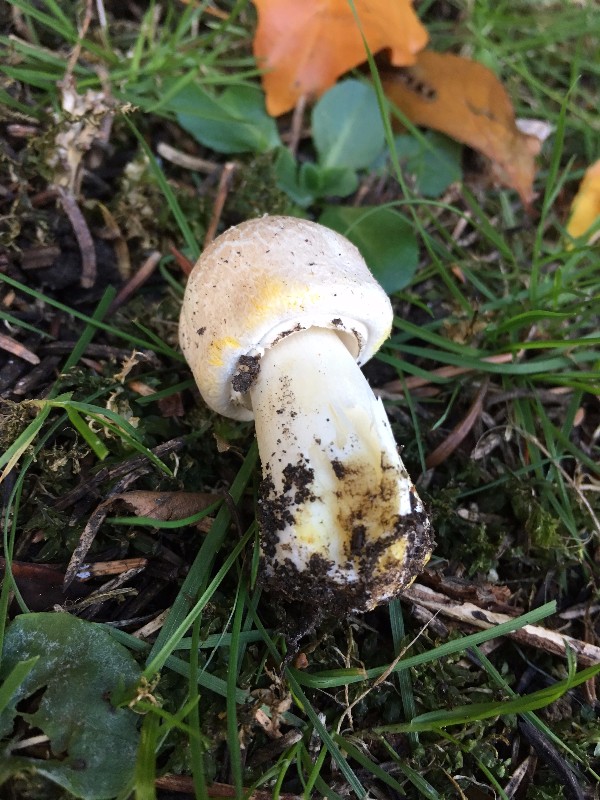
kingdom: Fungi
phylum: Basidiomycota
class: Agaricomycetes
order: Agaricales
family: Agaricaceae
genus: Agaricus
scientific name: Agaricus xanthodermus
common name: karbol-champignon
